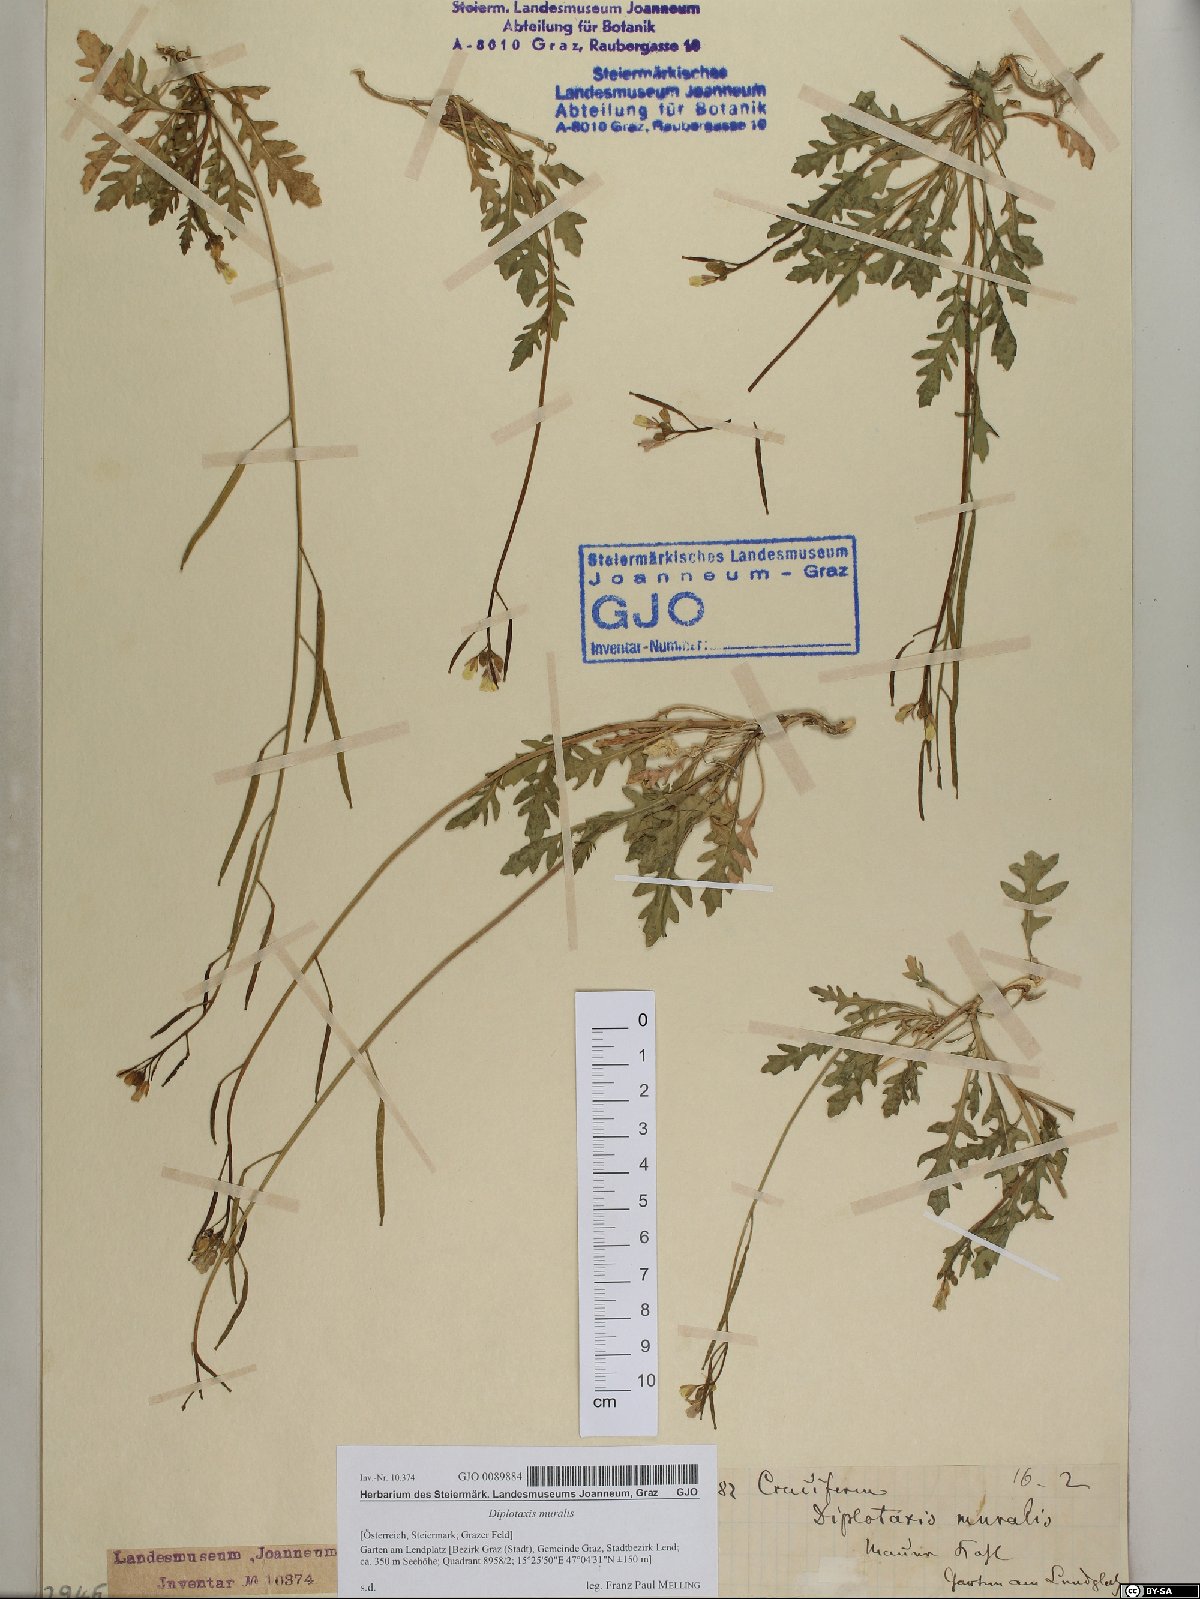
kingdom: Plantae
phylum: Tracheophyta
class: Magnoliopsida
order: Brassicales
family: Brassicaceae
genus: Diplotaxis
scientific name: Diplotaxis muralis
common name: Annual wall-rocket
